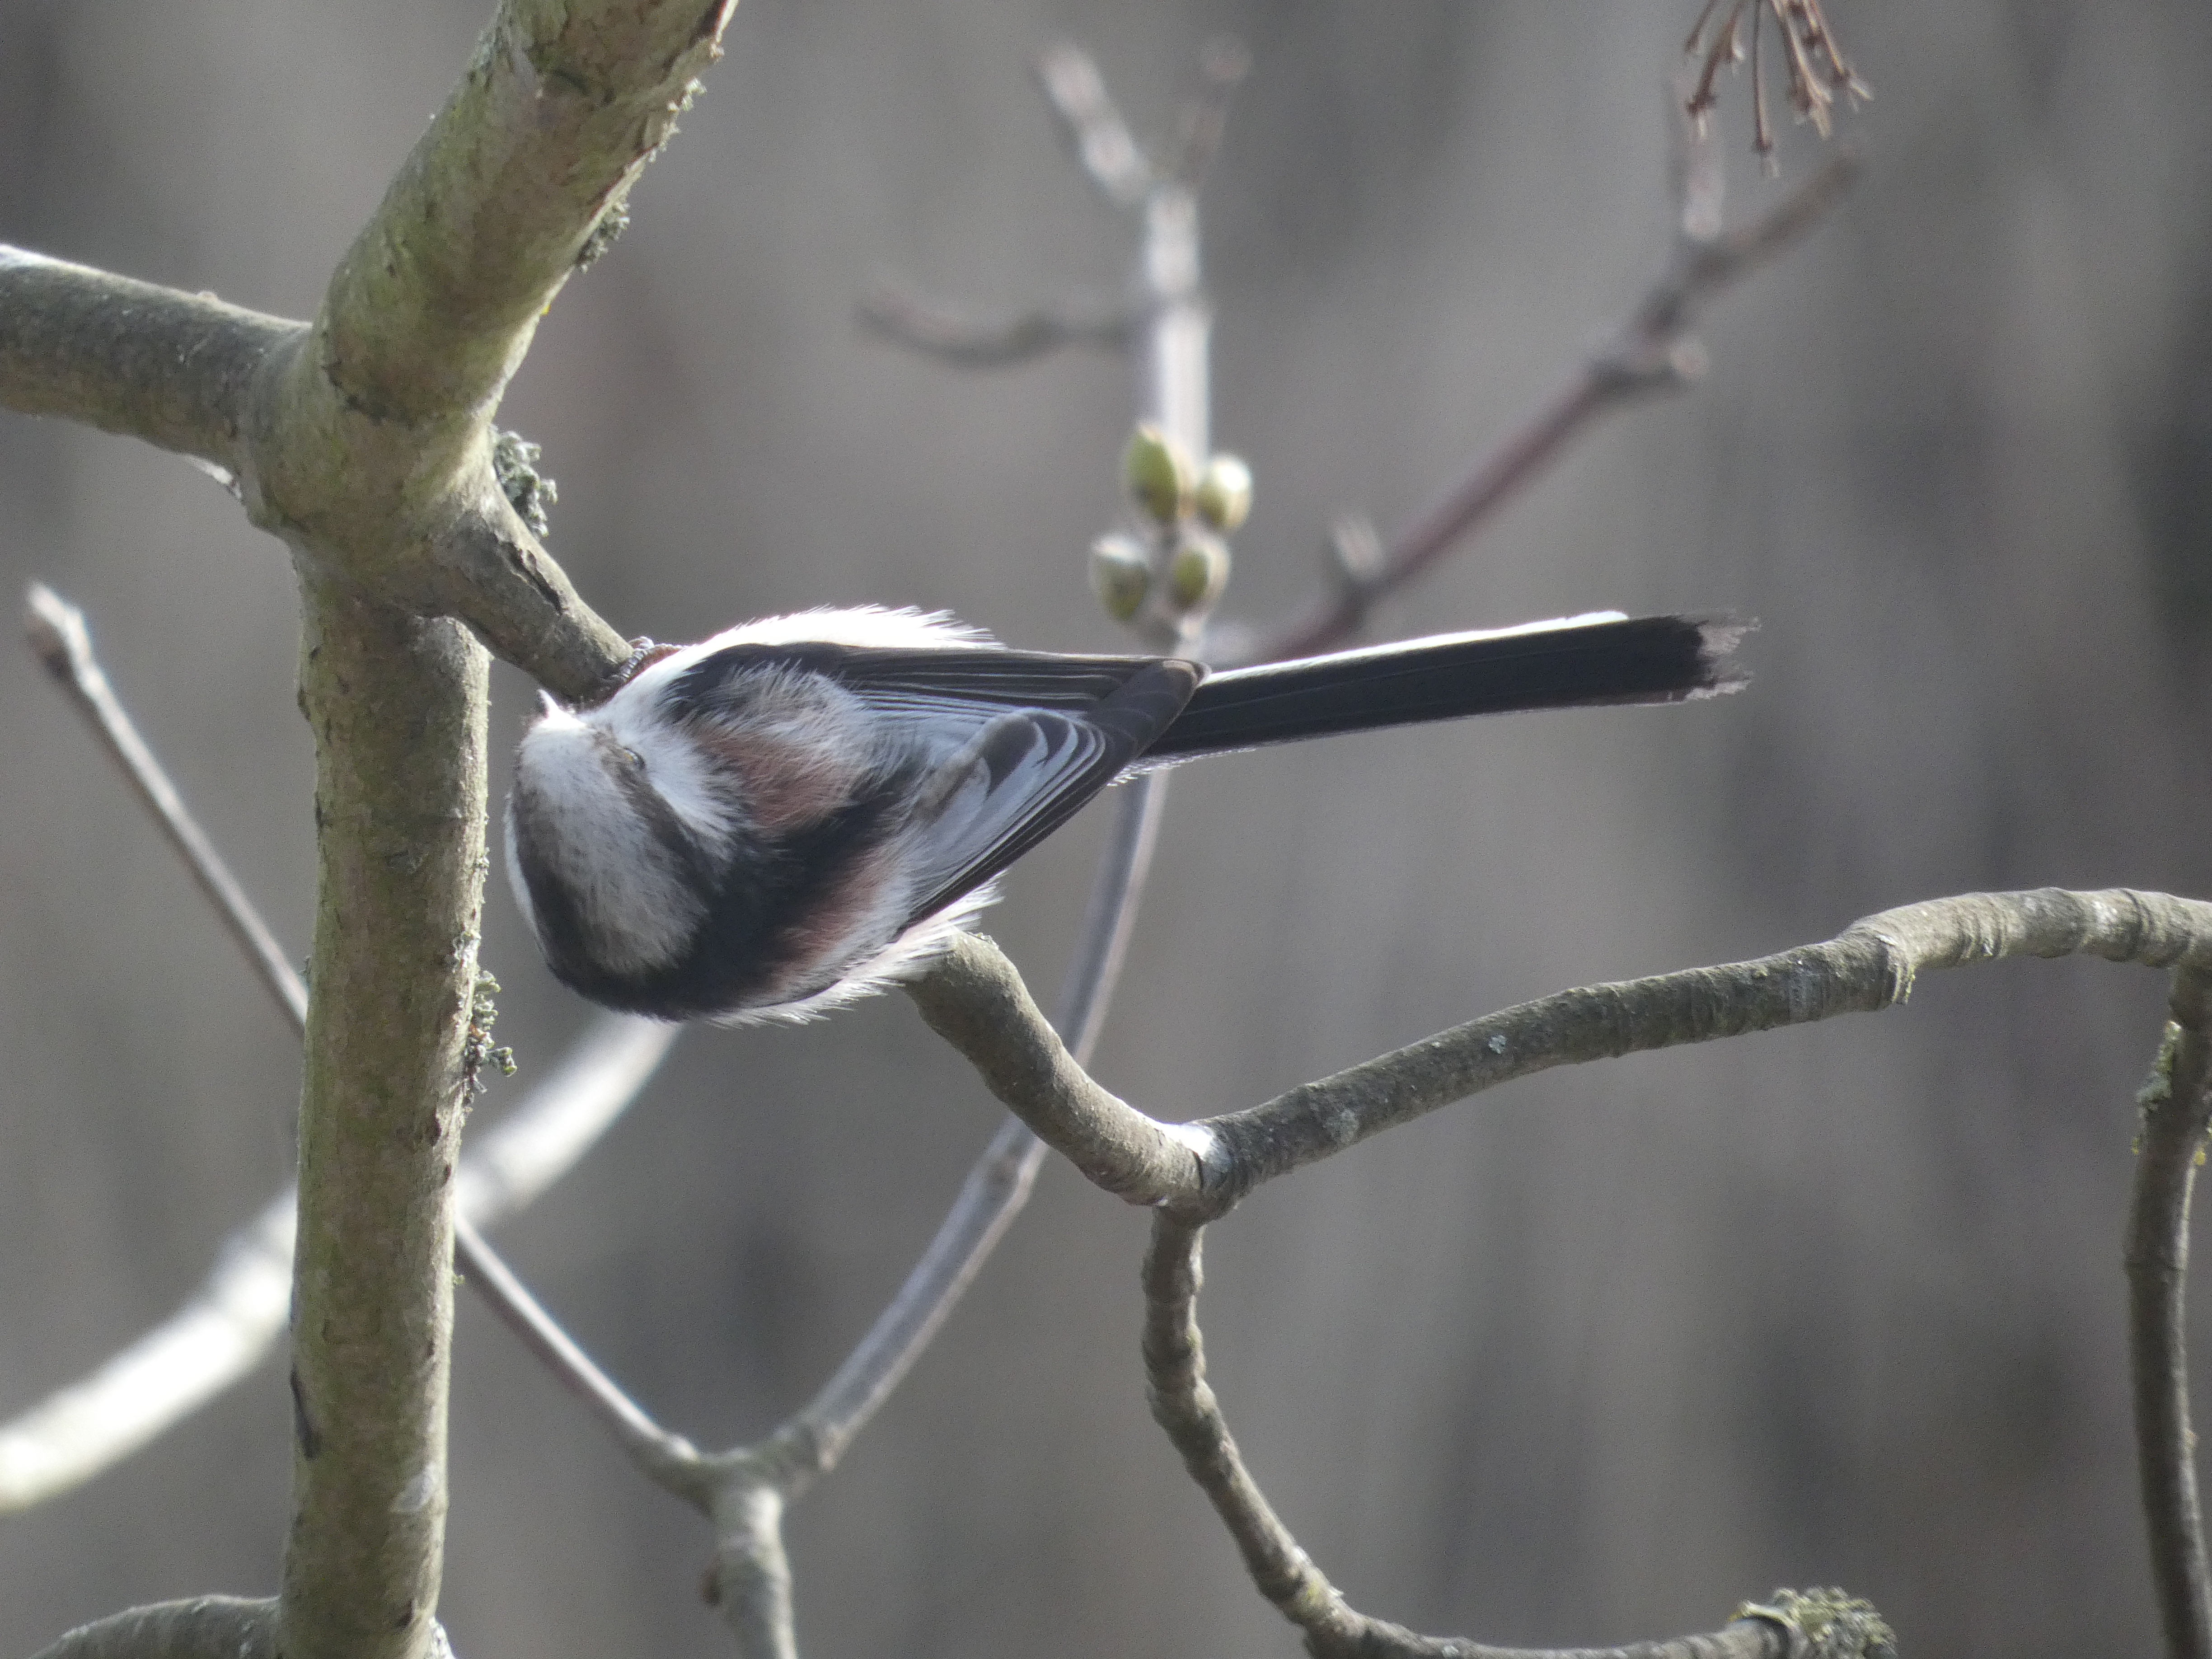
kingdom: Animalia
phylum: Chordata
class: Aves
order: Passeriformes
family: Aegithalidae
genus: Aegithalos
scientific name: Aegithalos caudatus
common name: Halemejse
